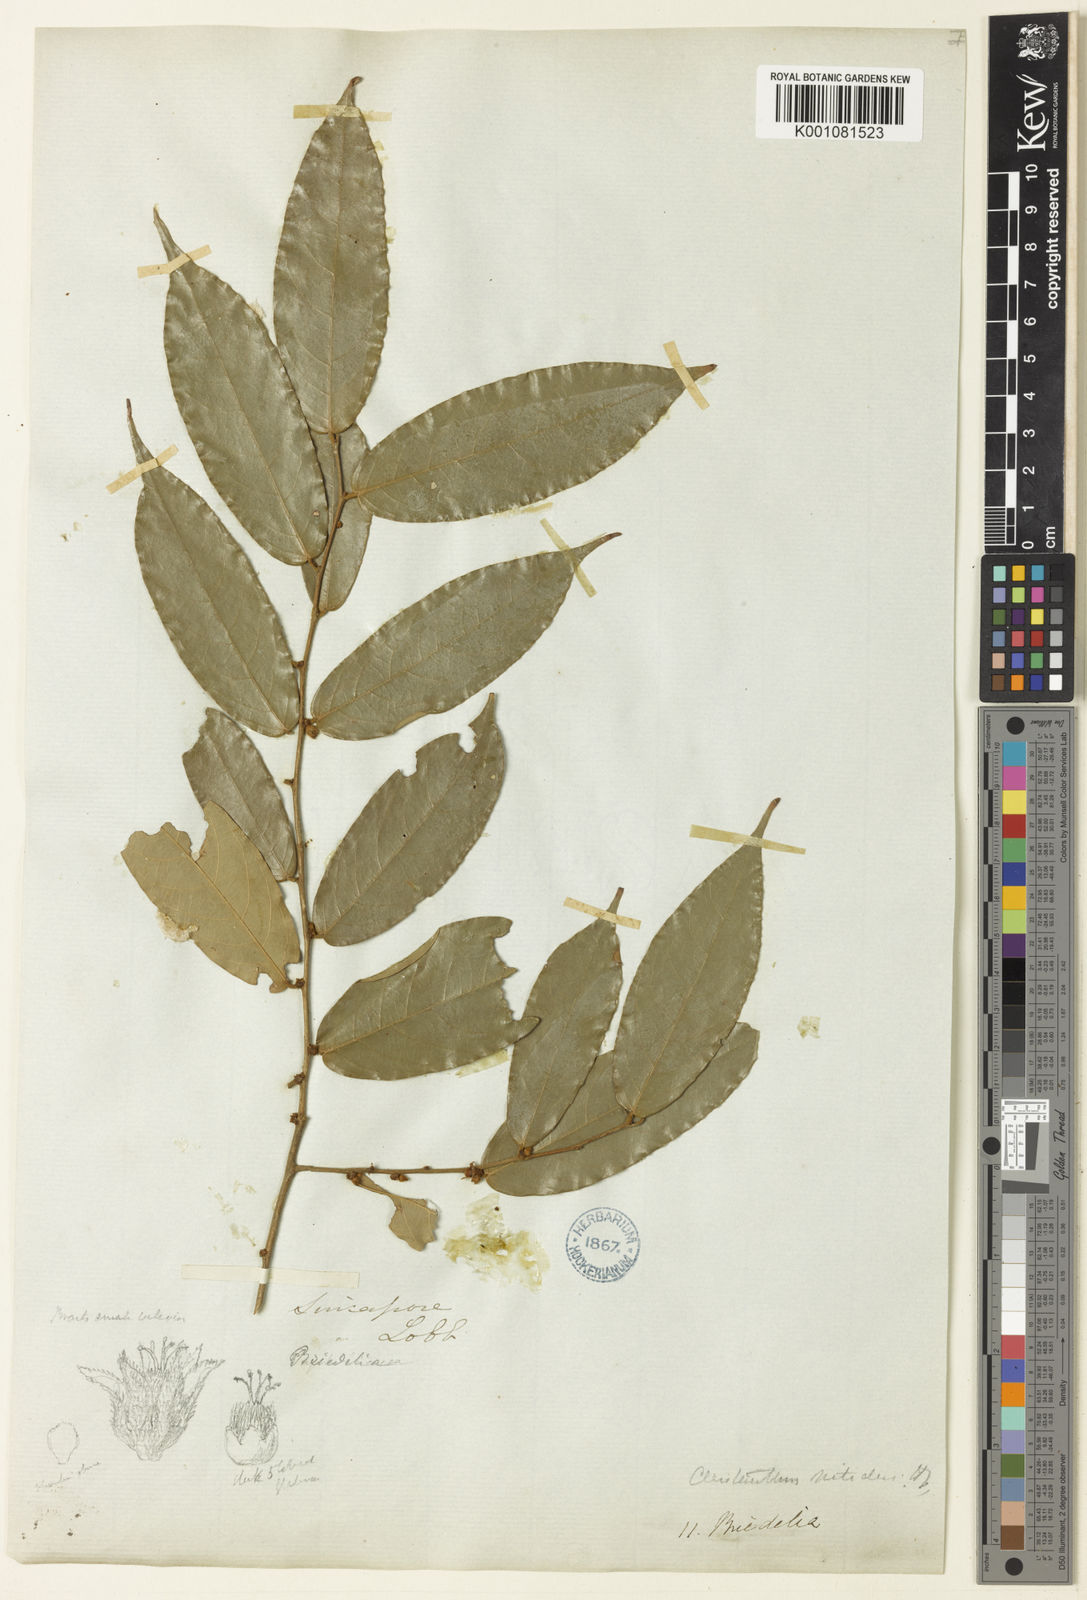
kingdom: Plantae
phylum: Tracheophyta
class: Magnoliopsida
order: Malpighiales
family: Phyllanthaceae
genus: Cleistanthus
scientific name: Cleistanthus nitidus
